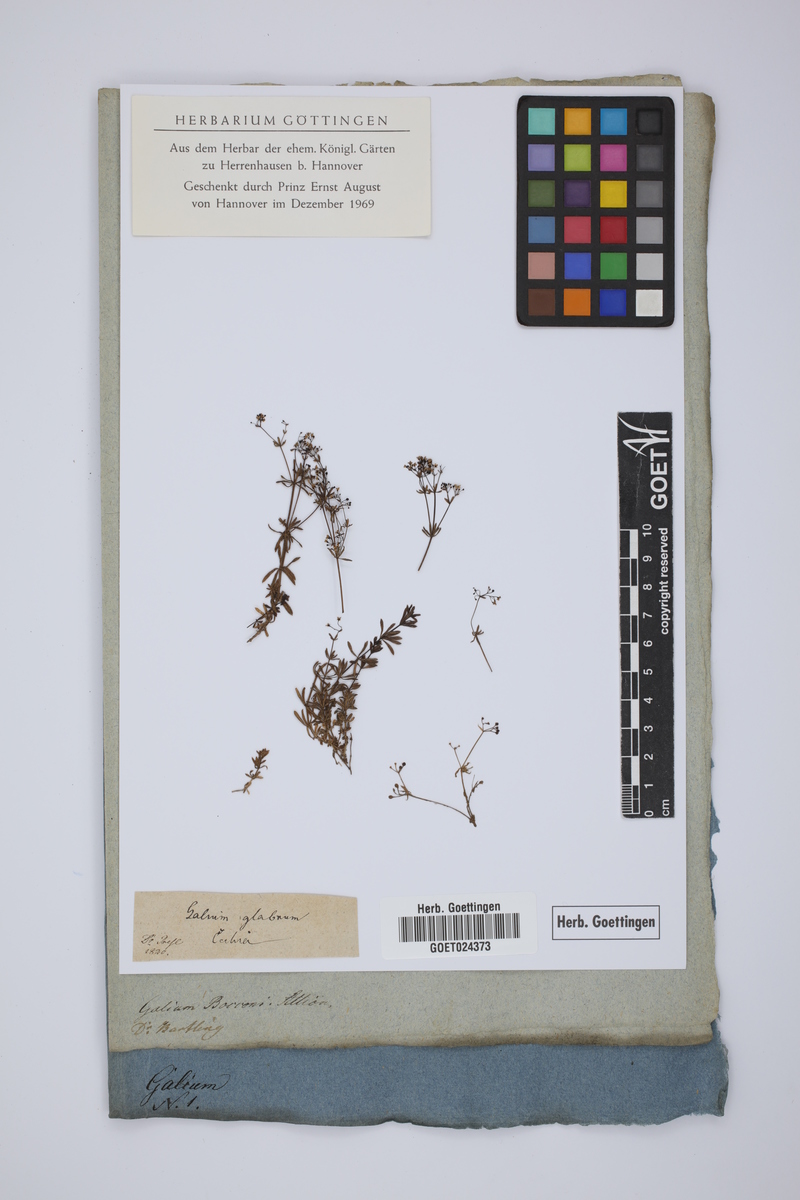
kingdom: Plantae
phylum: Tracheophyta
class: Magnoliopsida
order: Gentianales
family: Rubiaceae
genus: Galium
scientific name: Galium verum
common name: Lady's bedstraw
